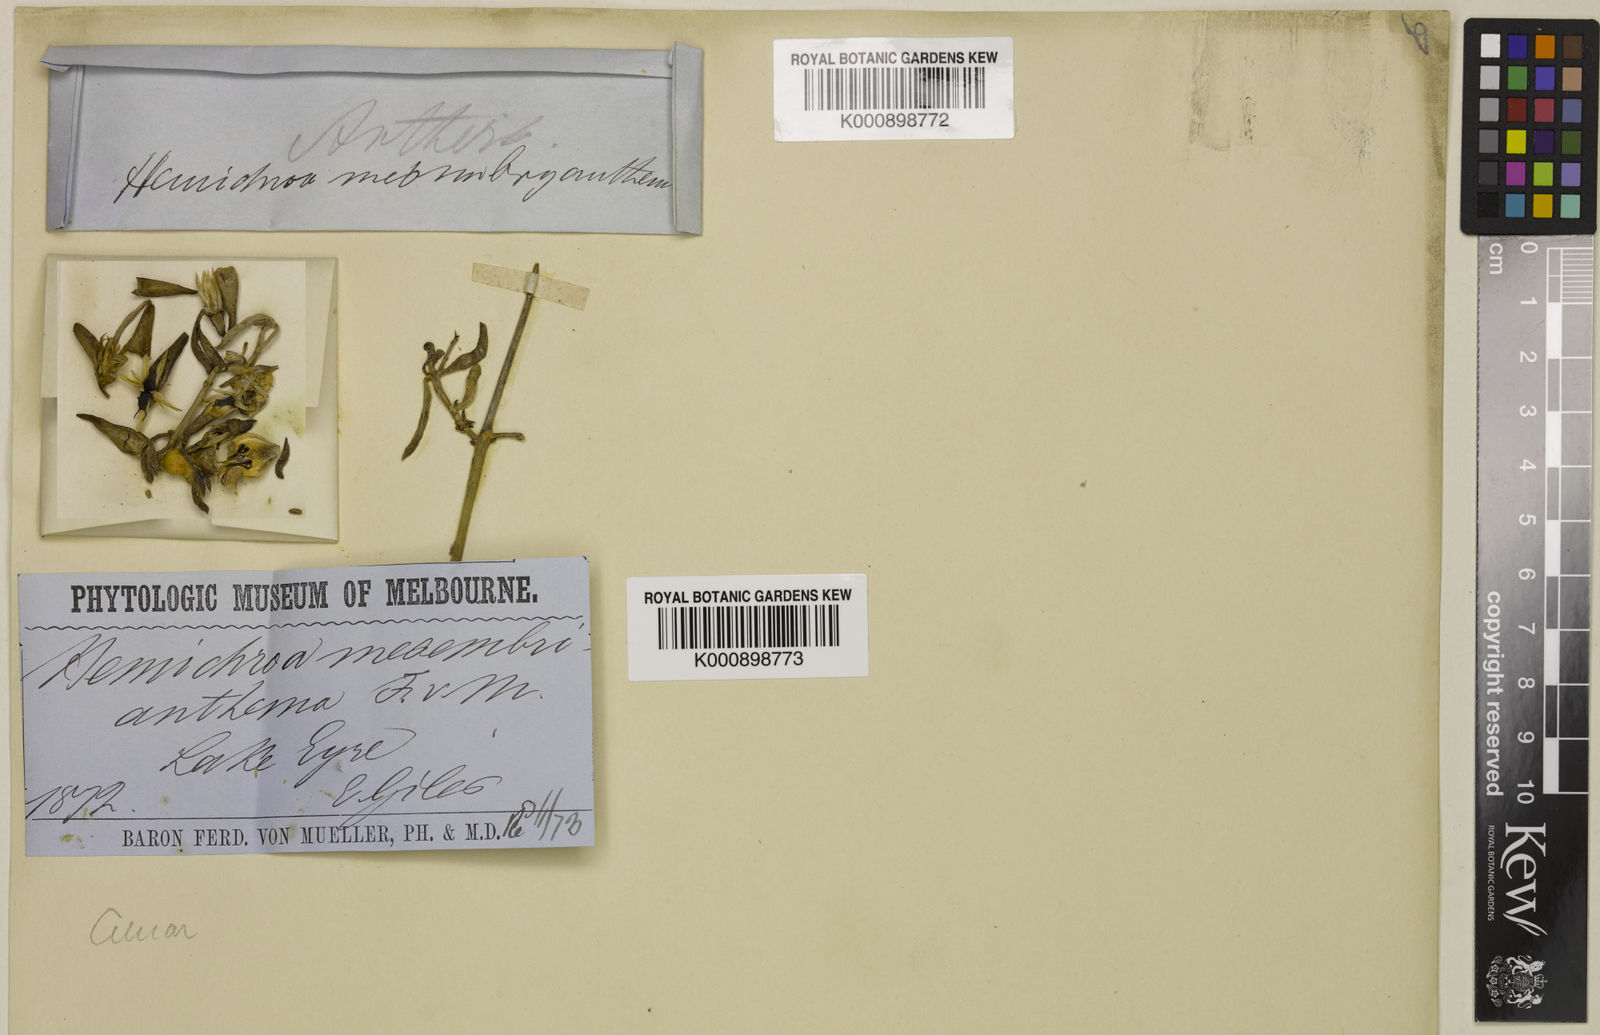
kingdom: Plantae
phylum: Tracheophyta
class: Magnoliopsida
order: Caryophyllales
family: Amaranthaceae
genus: Surreya
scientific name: Surreya mesembryanthema
